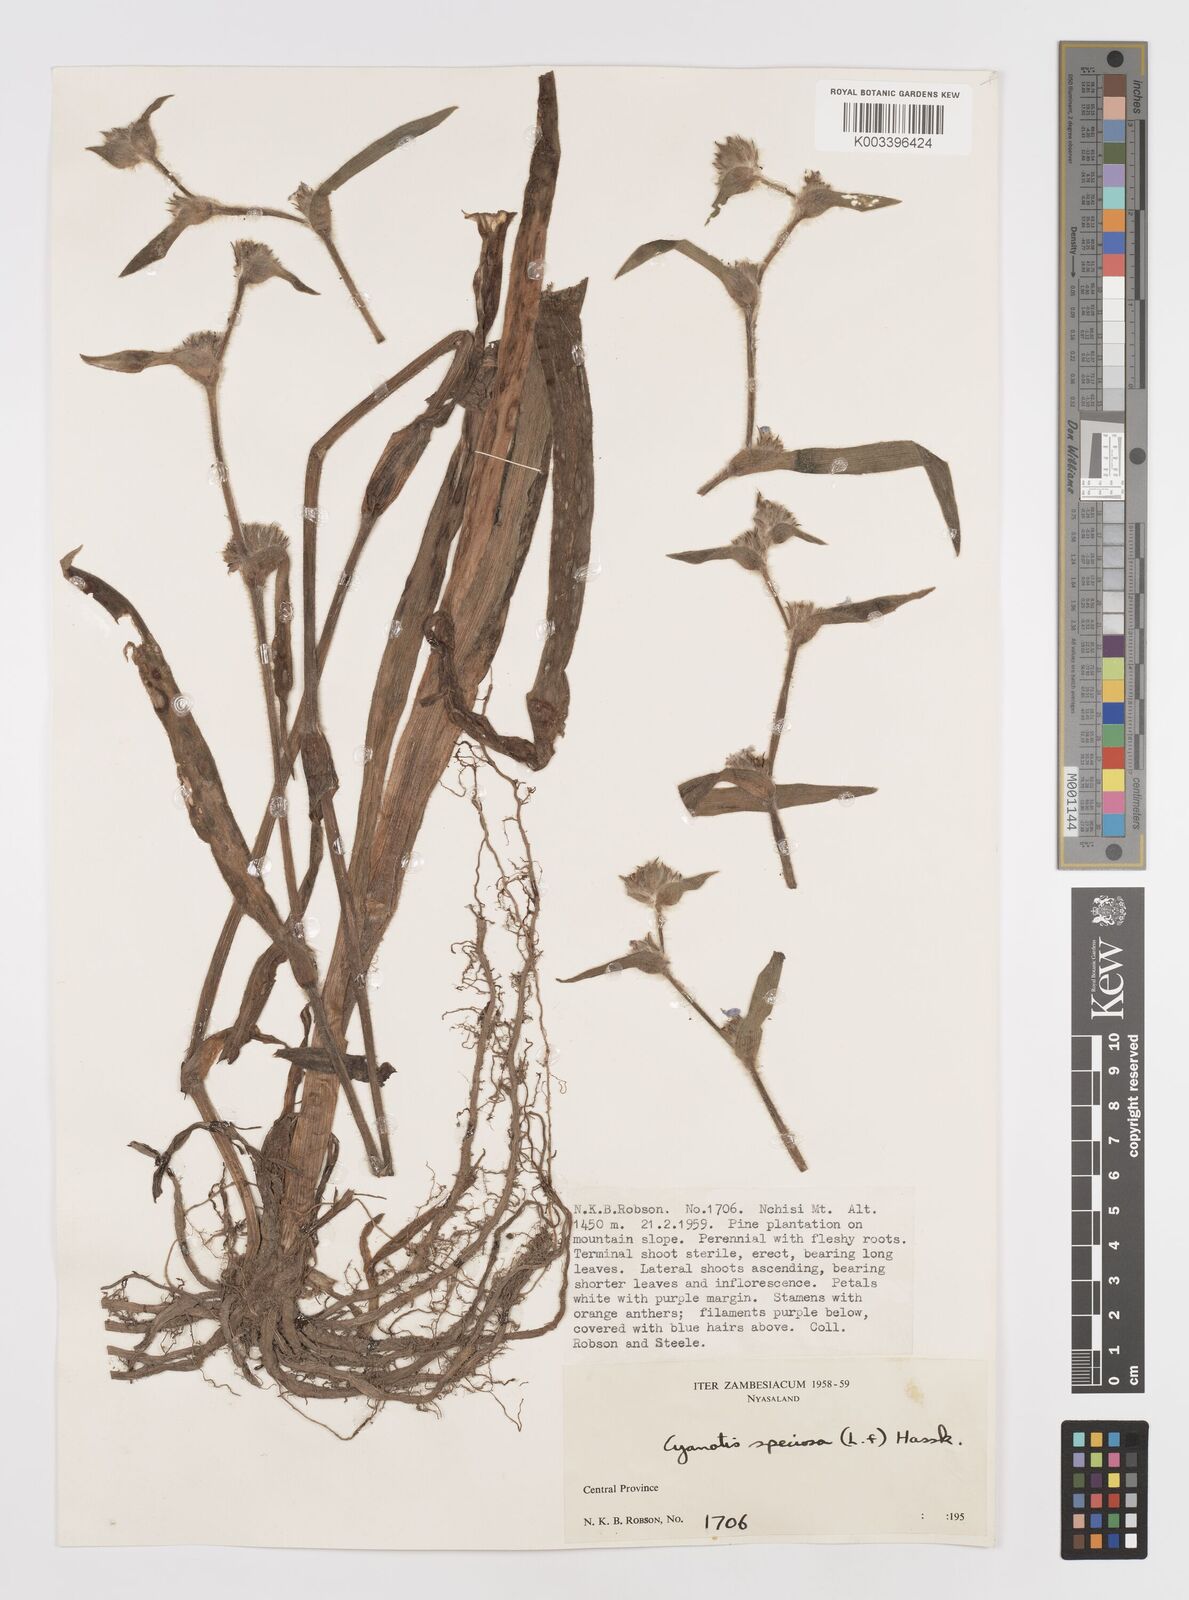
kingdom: Plantae
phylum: Tracheophyta
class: Liliopsida
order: Commelinales
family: Commelinaceae
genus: Cyanotis
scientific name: Cyanotis speciosa
